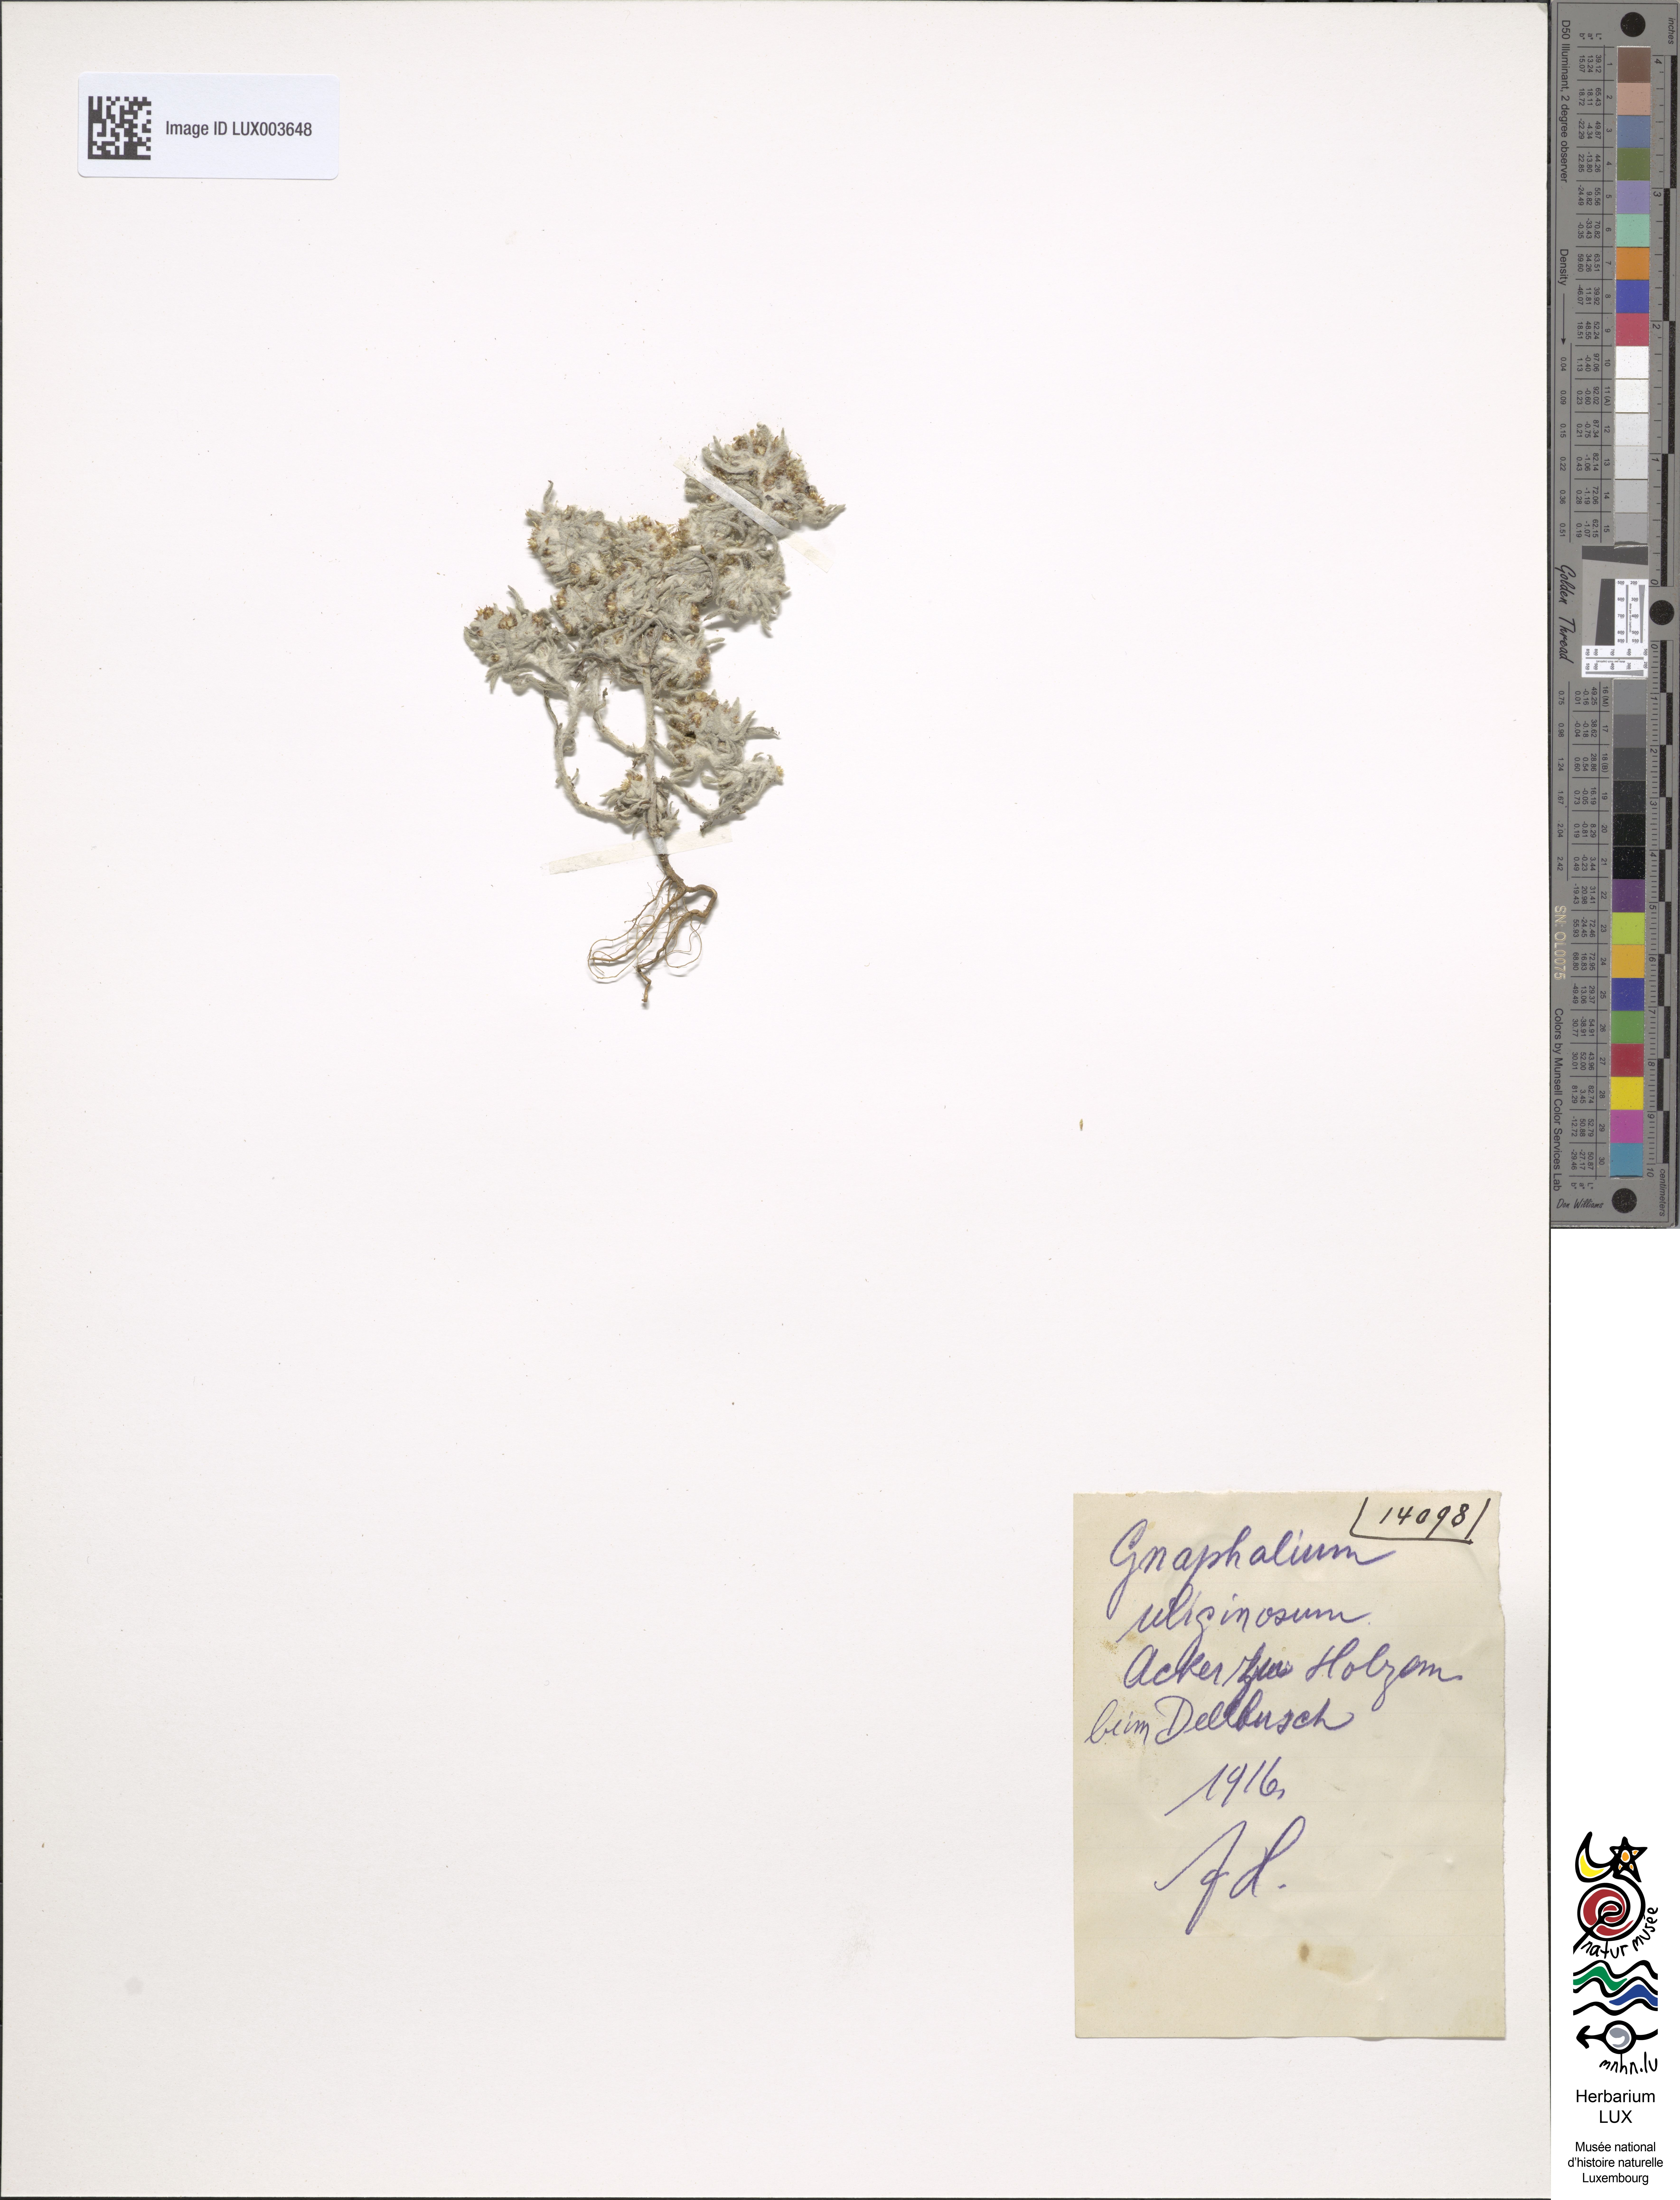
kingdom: Plantae
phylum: Tracheophyta
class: Magnoliopsida
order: Asterales
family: Asteraceae
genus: Gnaphalium
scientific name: Gnaphalium uliginosum
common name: Marsh cudweed
